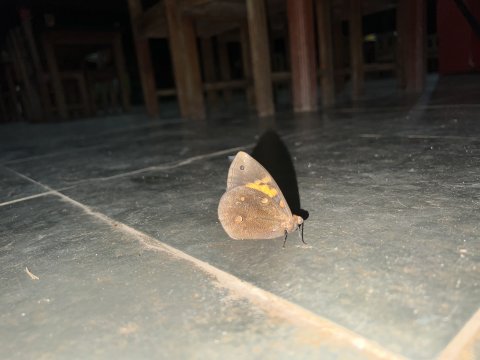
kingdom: Animalia
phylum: Arthropoda
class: Insecta
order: Lepidoptera
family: Nymphalidae
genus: Brassolis
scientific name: Brassolis sophorae
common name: coconut caterpillar
